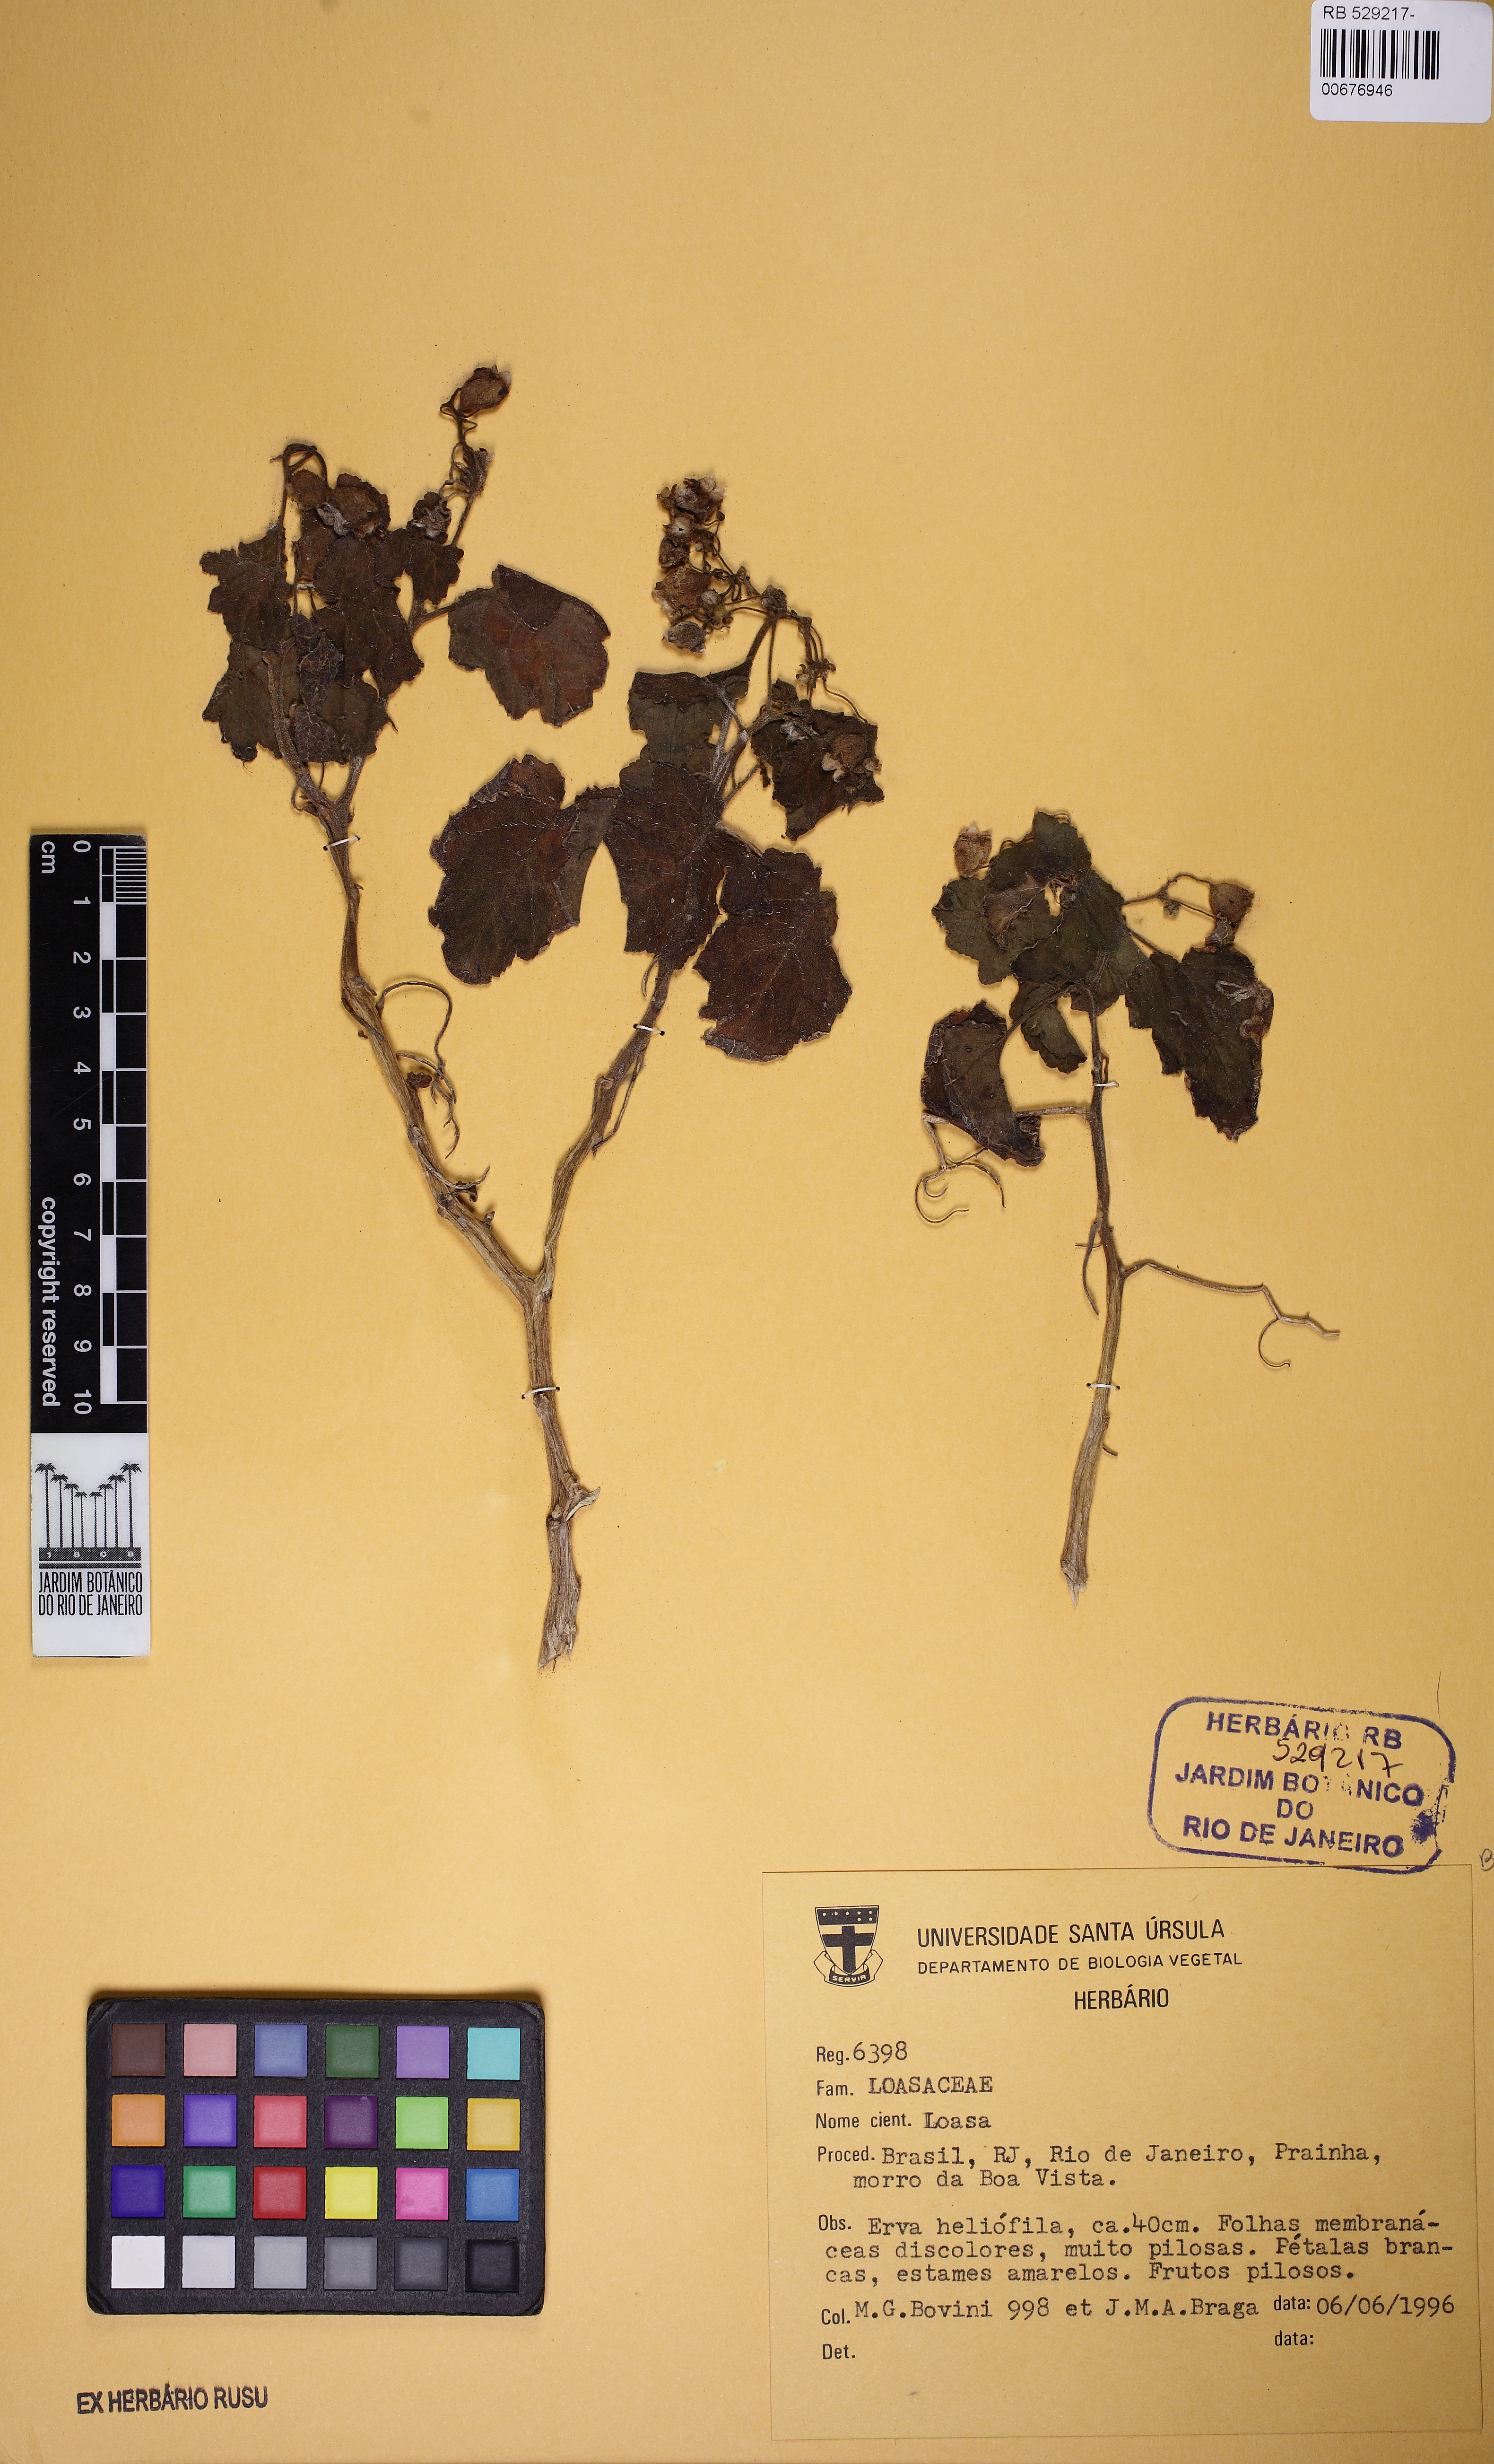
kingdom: Plantae
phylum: Tracheophyta
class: Magnoliopsida
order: Cornales
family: Loasaceae
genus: Aosa
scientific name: Aosa parviflora
